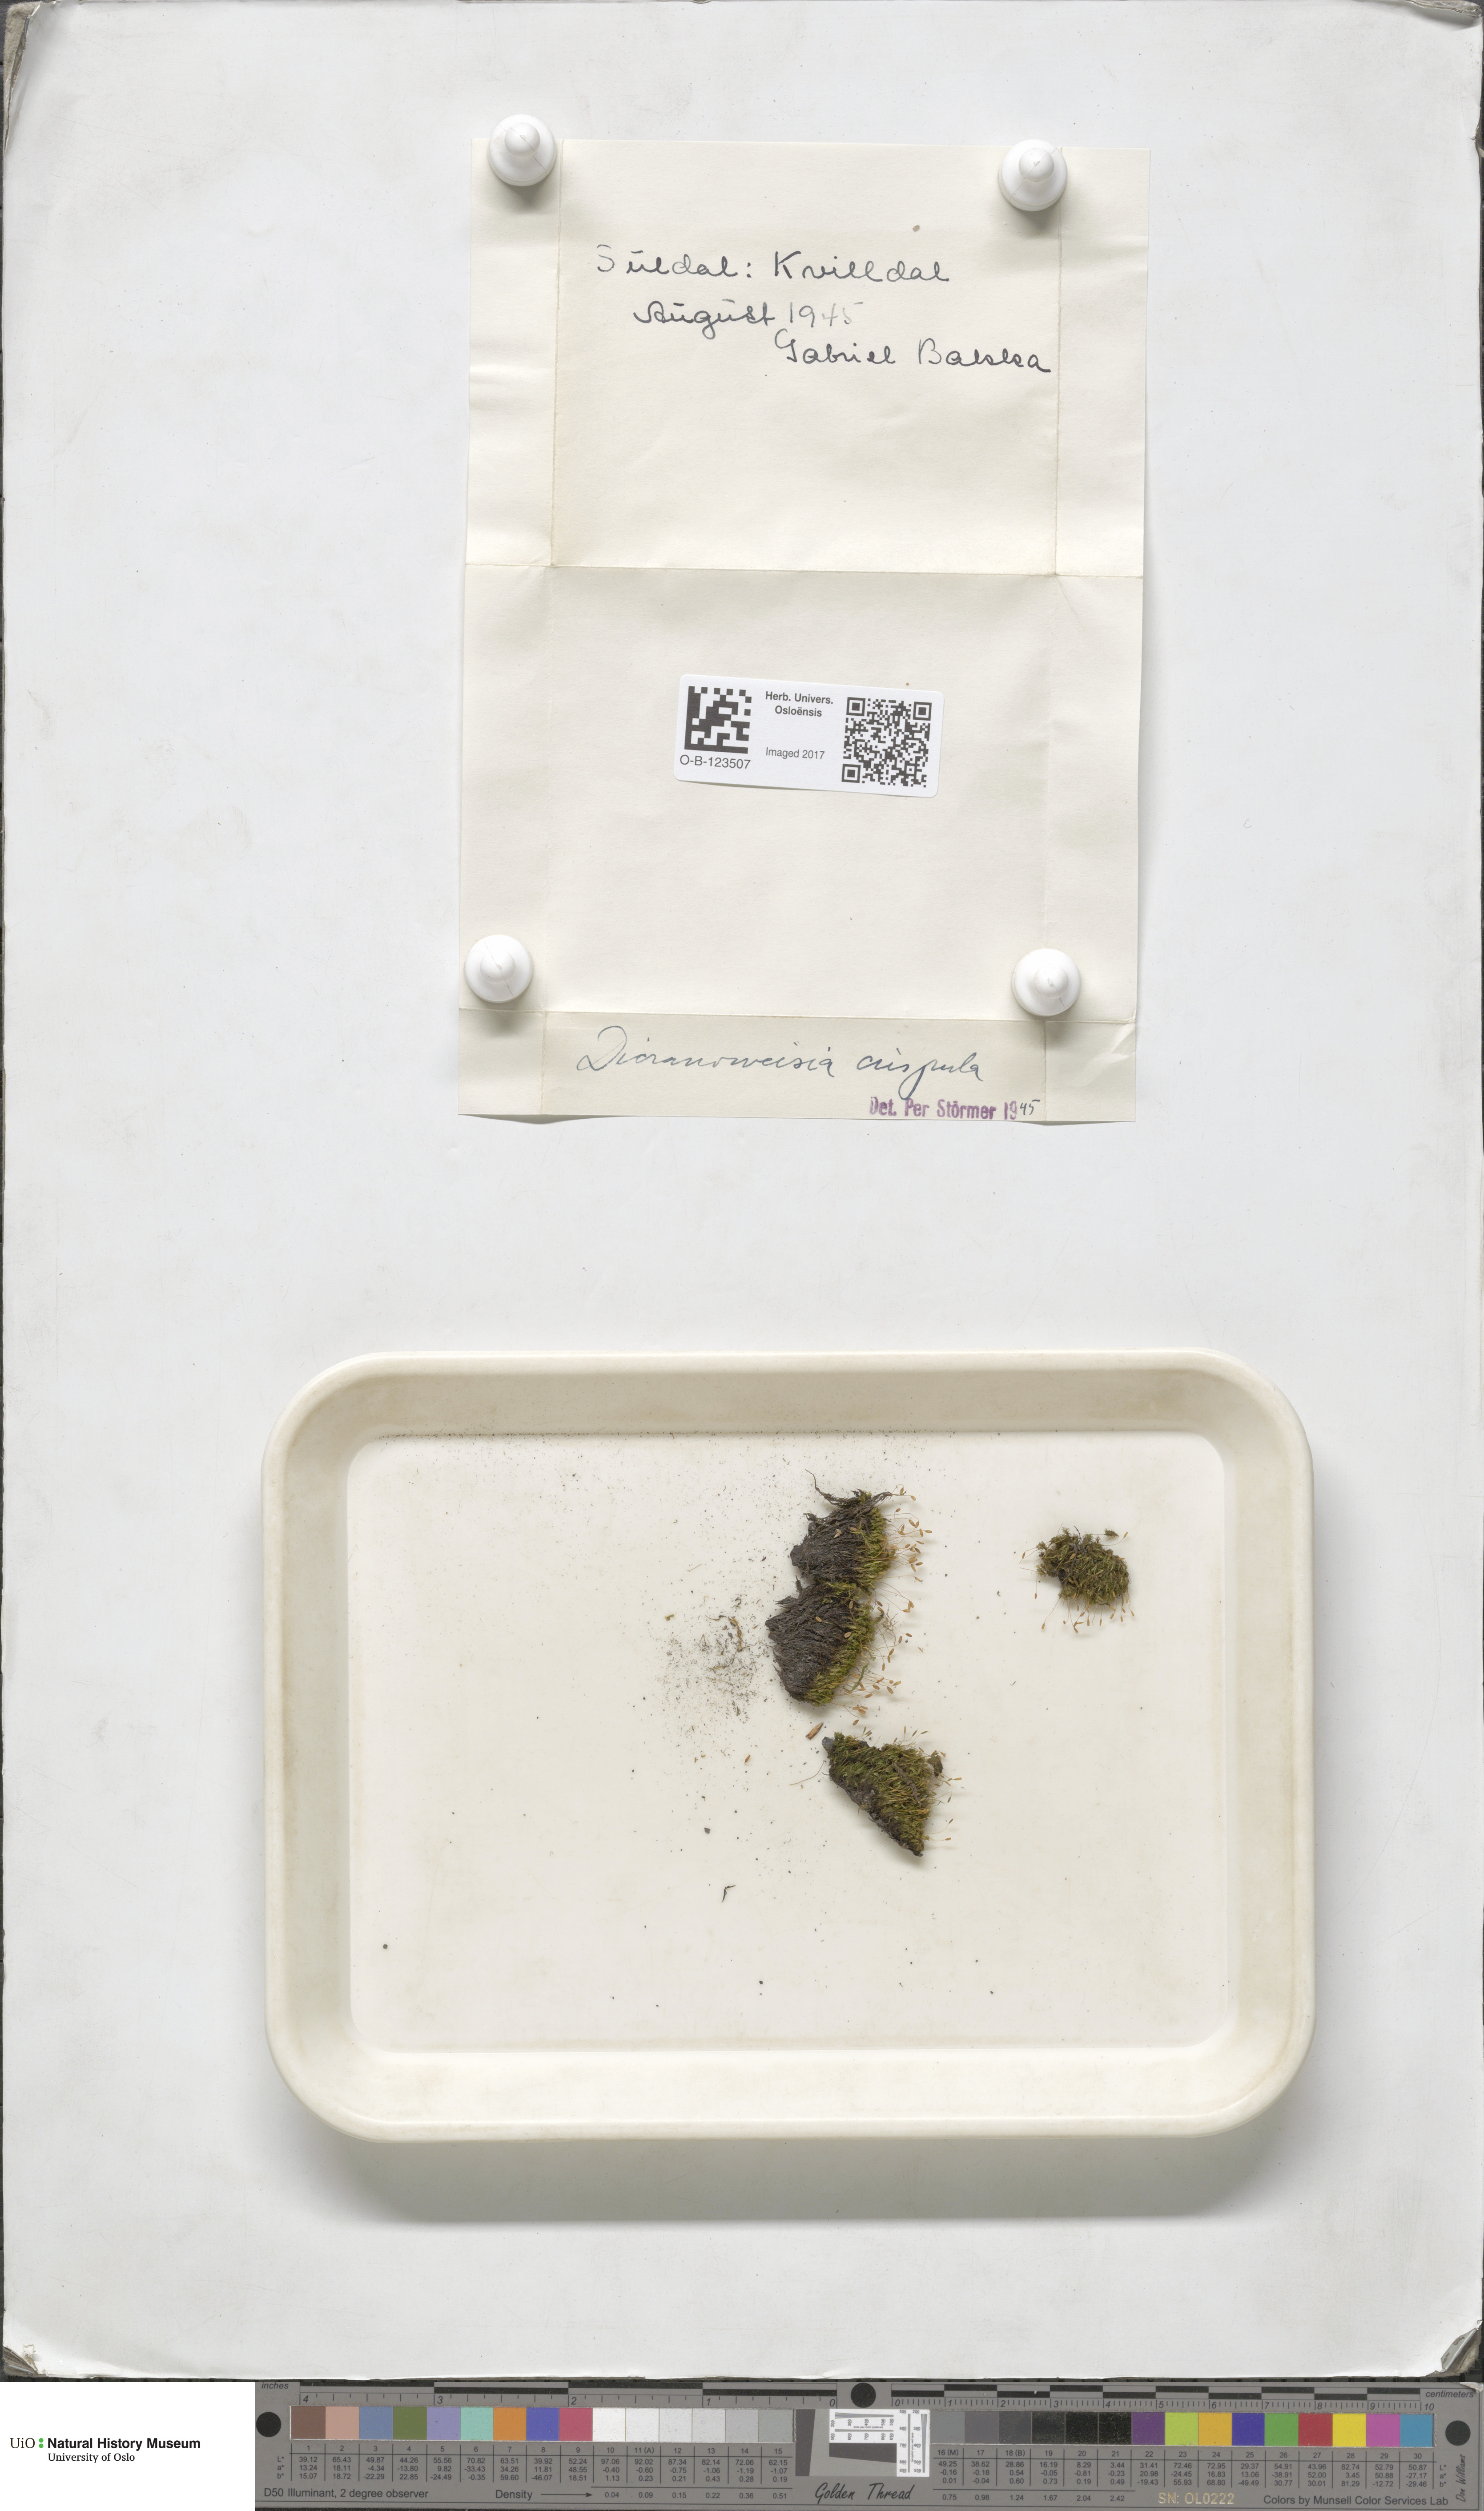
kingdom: Plantae
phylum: Bryophyta
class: Bryopsida
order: Scouleriales
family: Hymenolomataceae
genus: Hymenoloma
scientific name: Hymenoloma crispulum
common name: Mountain pincushion
